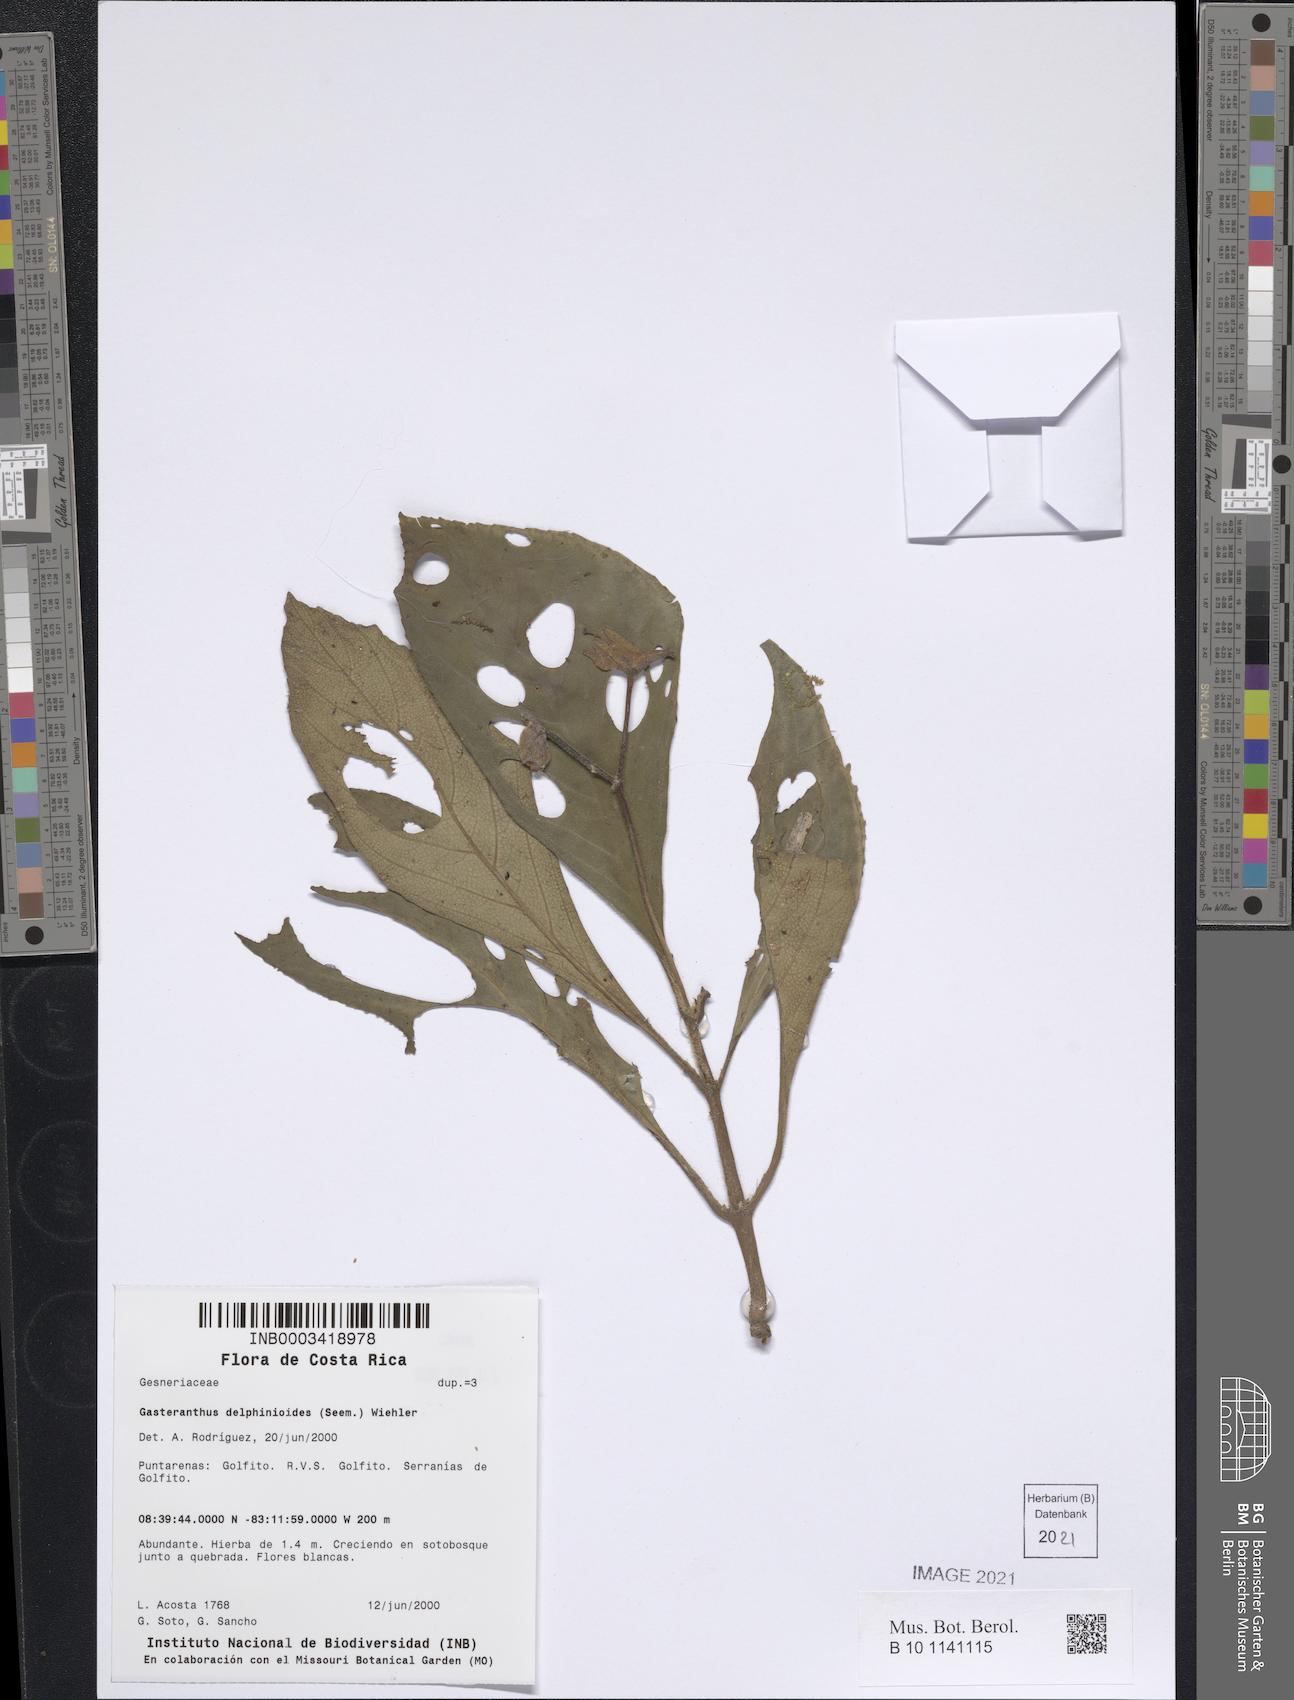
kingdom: Plantae
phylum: Tracheophyta
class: Magnoliopsida
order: Lamiales
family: Gesneriaceae
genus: Gasteranthus
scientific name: Gasteranthus delphinioides
